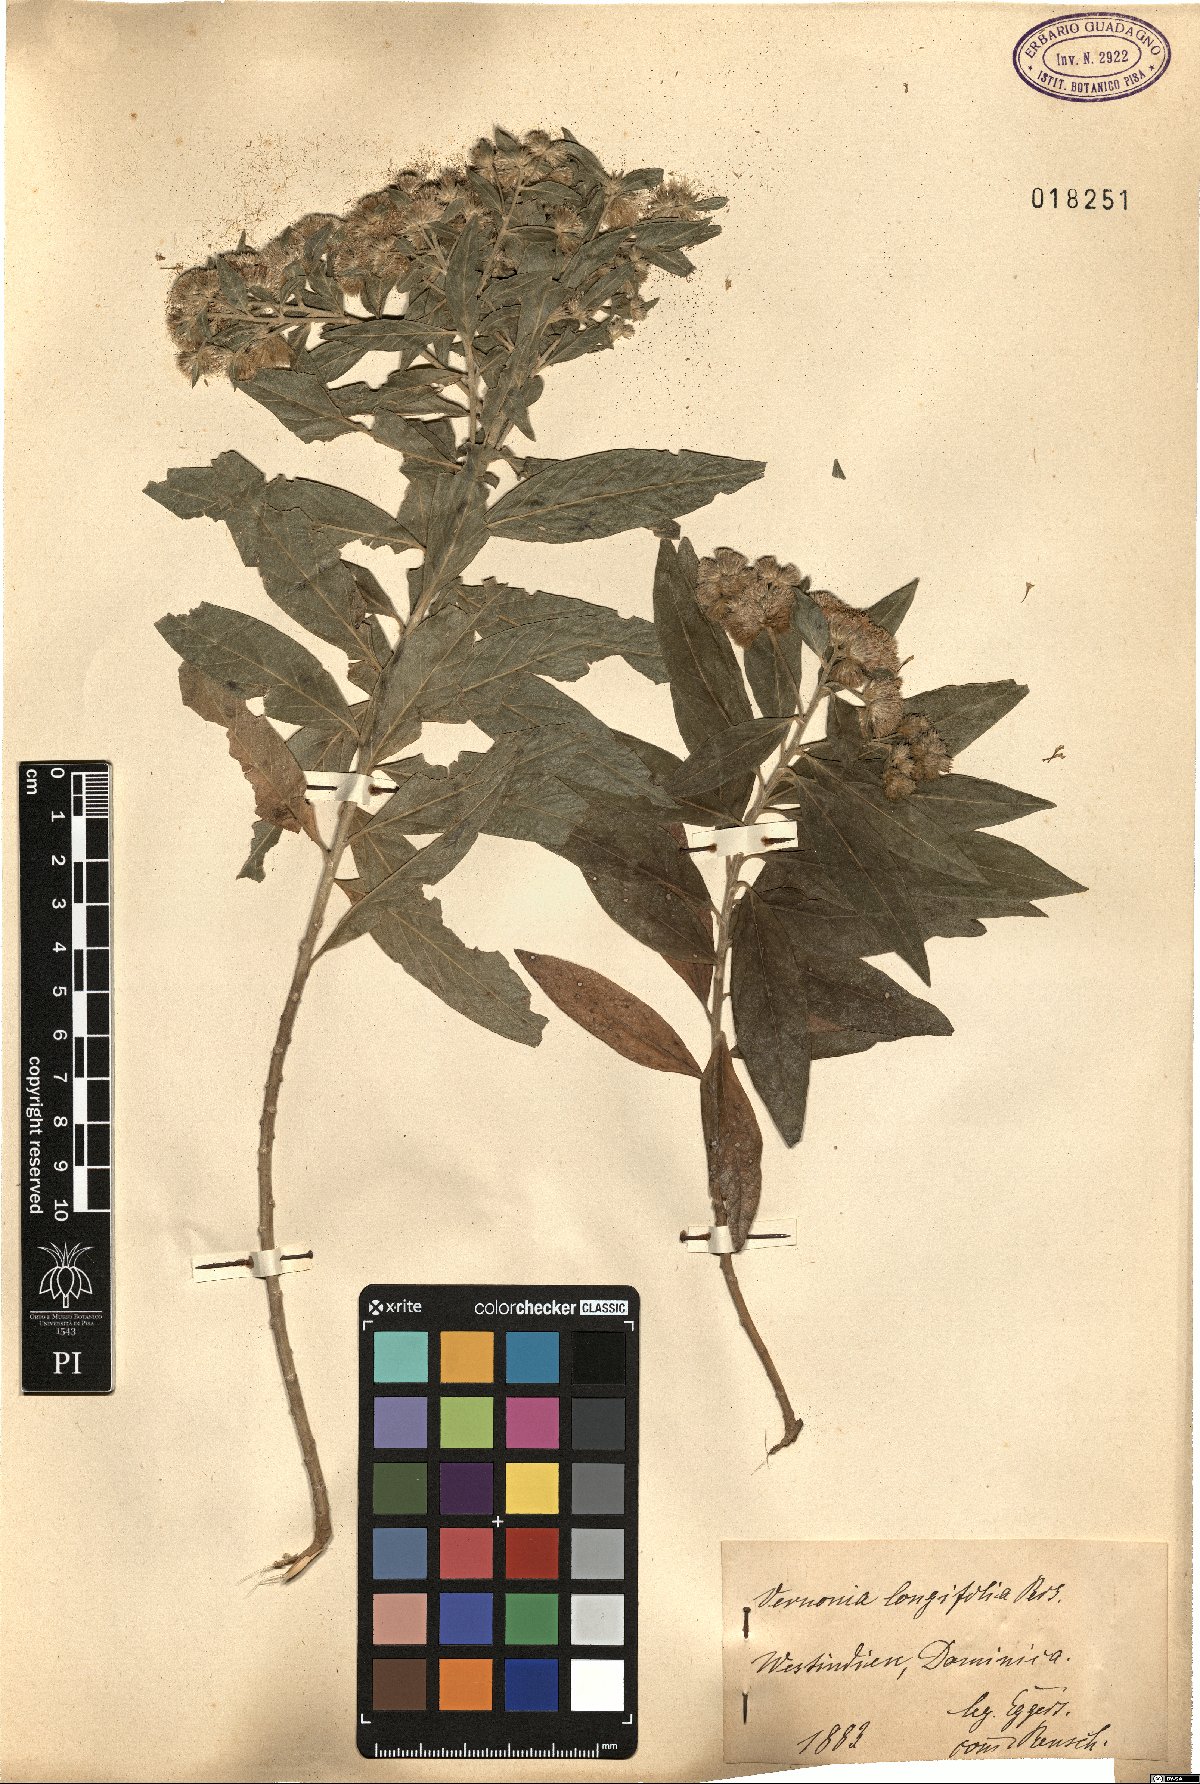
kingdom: Plantae
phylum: Tracheophyta
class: Magnoliopsida
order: Asterales
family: Asteraceae
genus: Lepidaploa
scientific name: Lepidaploa glabra
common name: Santa maria
